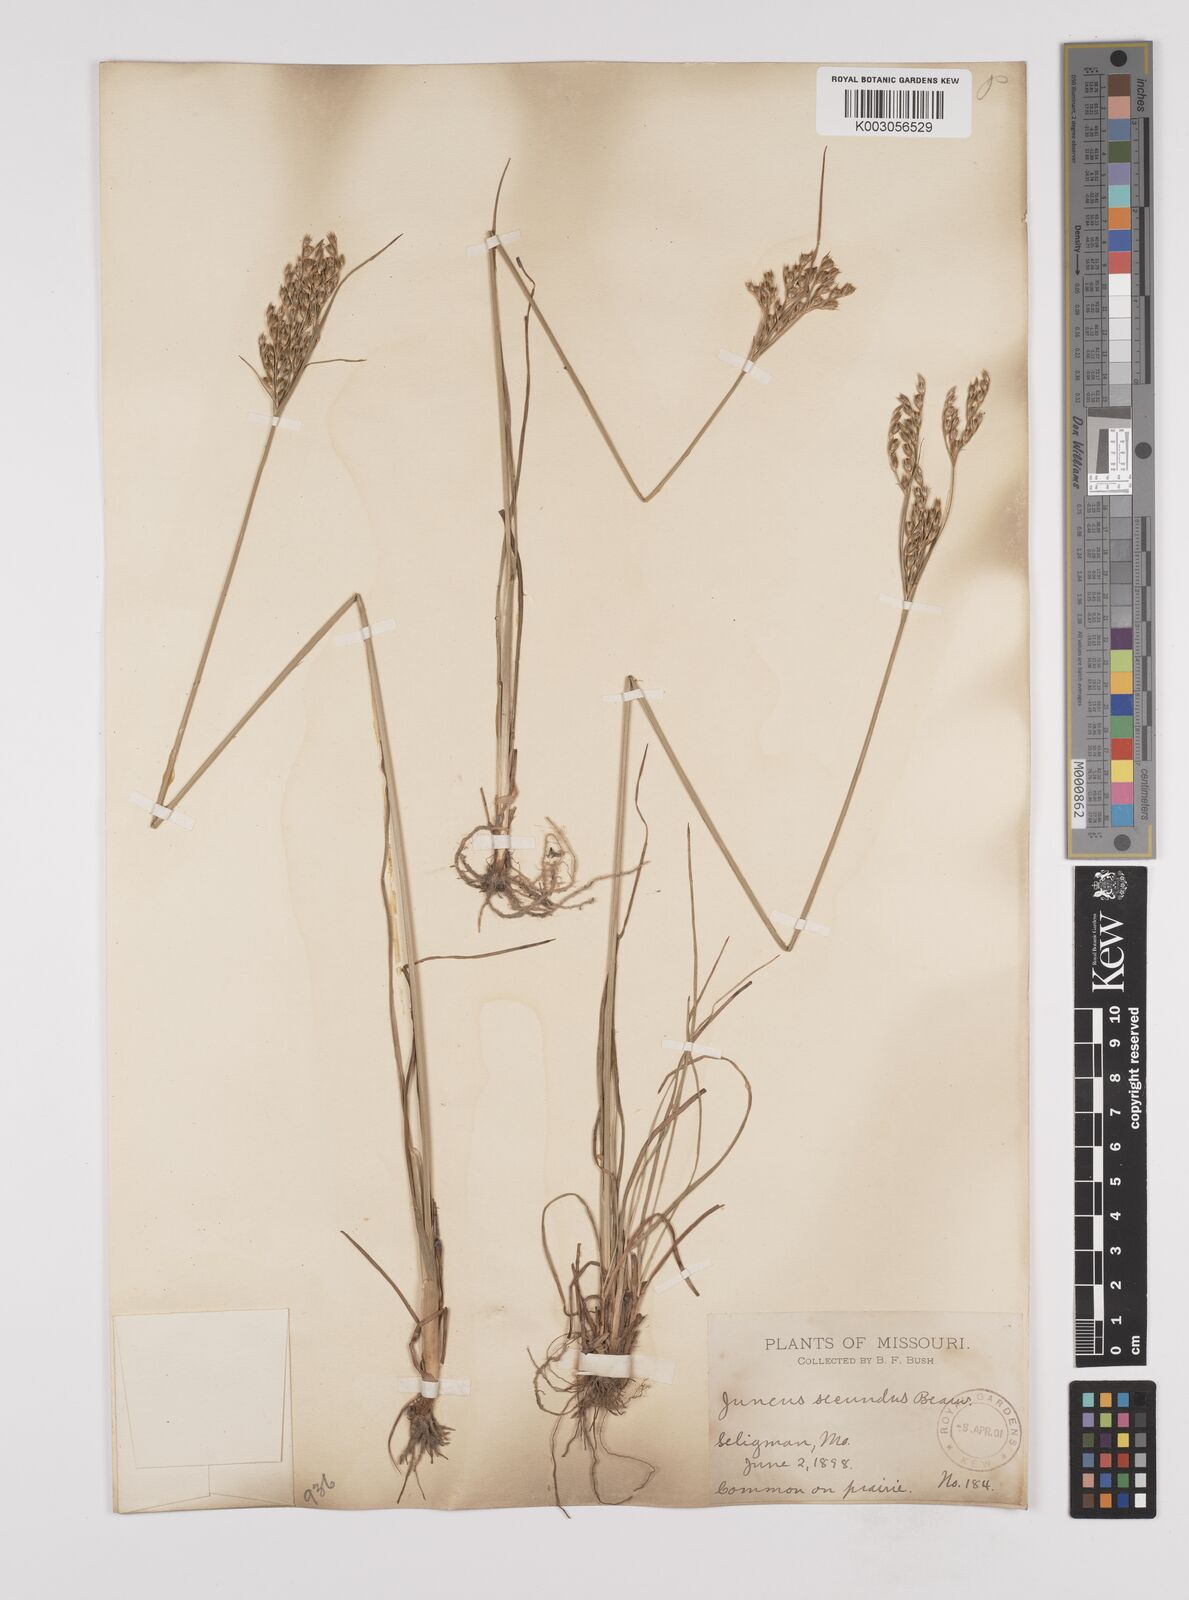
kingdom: Plantae
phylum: Tracheophyta
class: Liliopsida
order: Poales
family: Juncaceae
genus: Juncus
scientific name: Juncus secundus
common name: Lopsided rush
